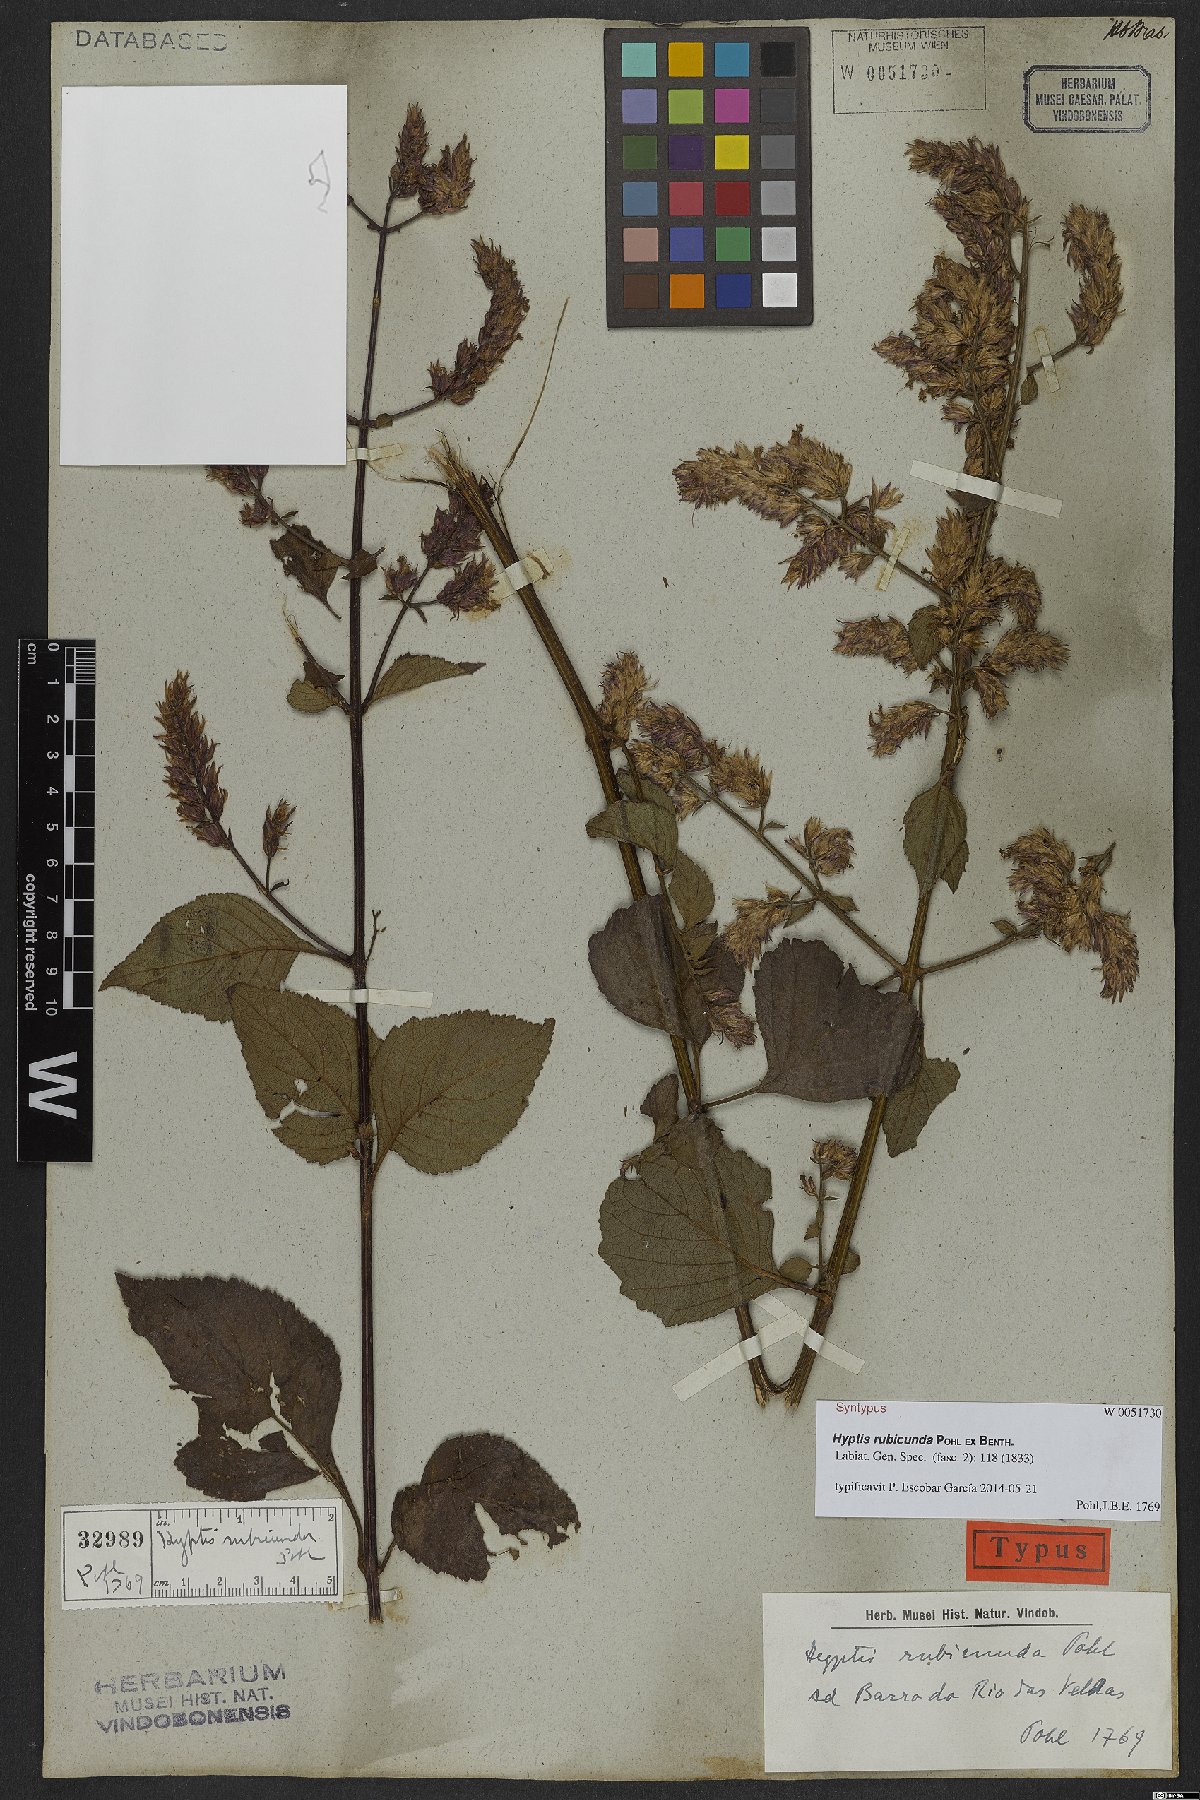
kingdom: Plantae
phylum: Tracheophyta
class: Magnoliopsida
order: Lamiales
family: Lamiaceae
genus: Cantinoa
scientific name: Cantinoa rubicunda
